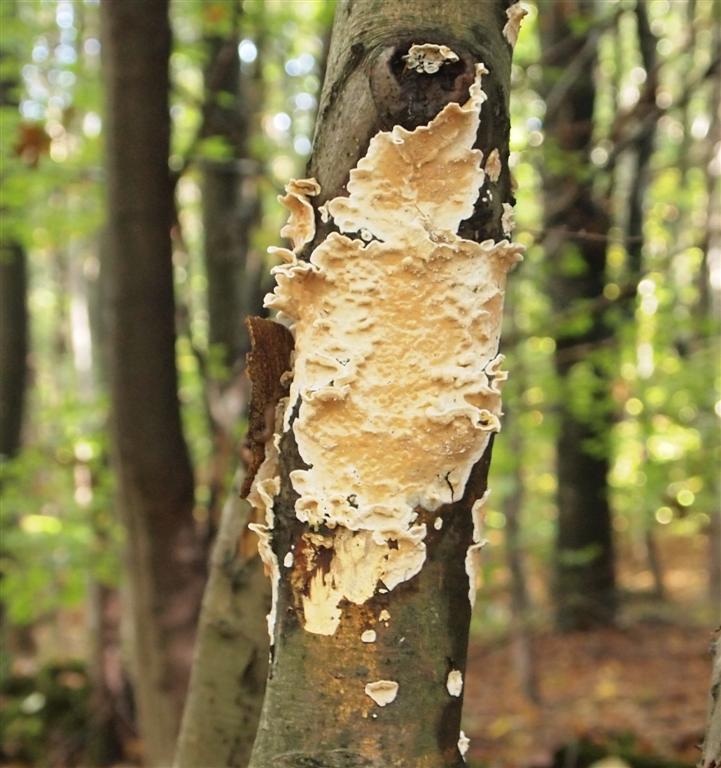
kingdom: Fungi
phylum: Basidiomycota
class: Agaricomycetes
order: Polyporales
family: Irpicaceae
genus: Byssomerulius
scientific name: Byssomerulius corium
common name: læder-åresvamp
